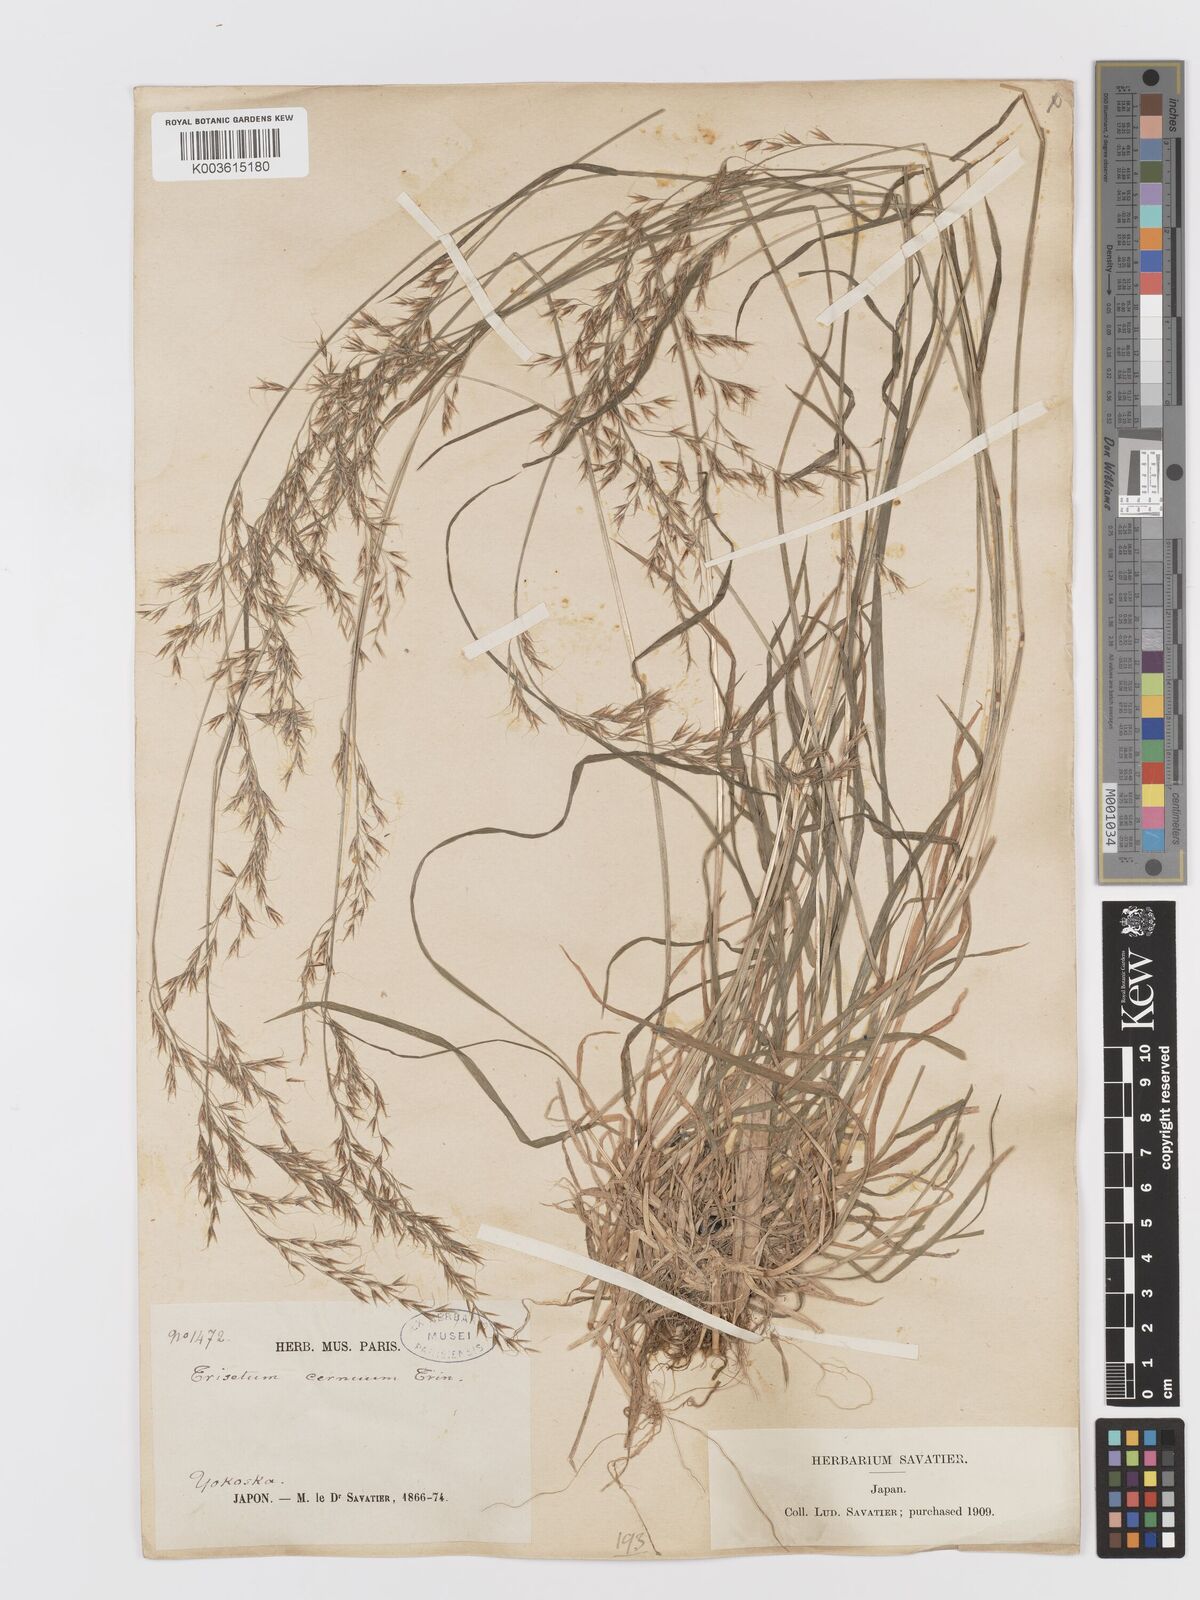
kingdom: Plantae
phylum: Tracheophyta
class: Liliopsida
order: Poales
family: Poaceae
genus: Sibirotrisetum
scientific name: Sibirotrisetum bifidum
